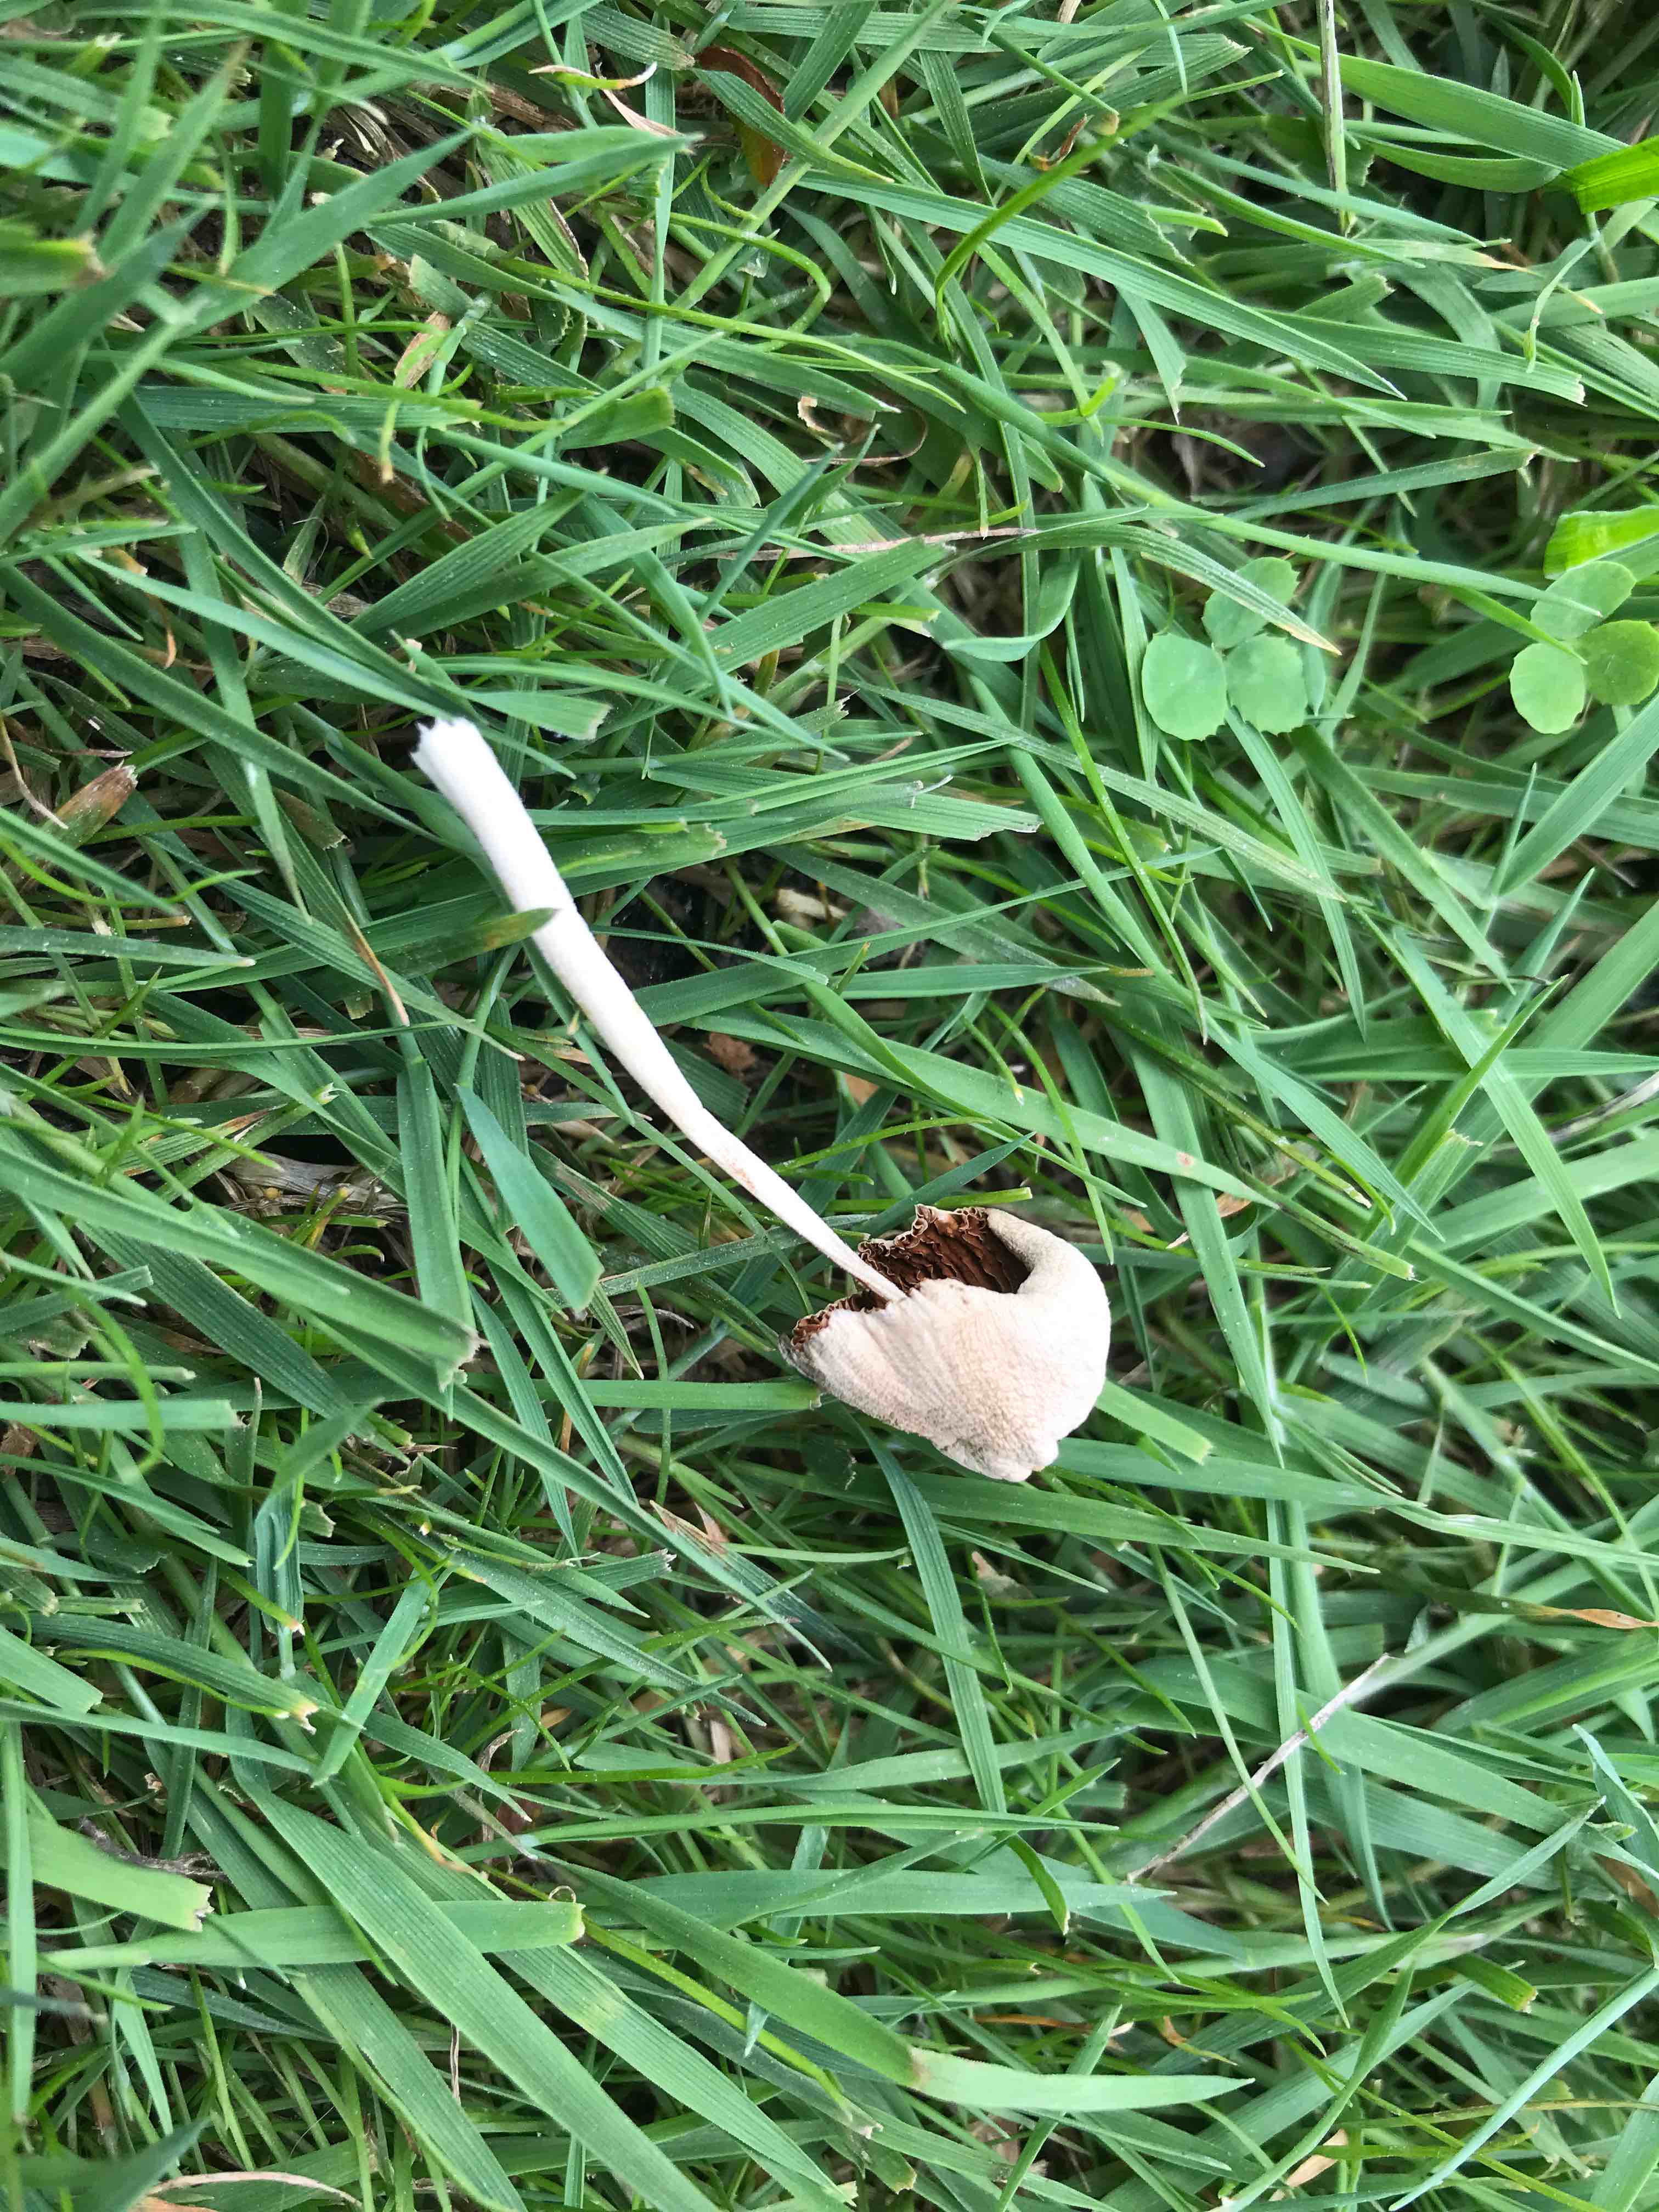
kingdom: Fungi
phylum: Basidiomycota
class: Agaricomycetes
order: Agaricales
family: Bolbitiaceae
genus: Conocybe
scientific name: Conocybe apala
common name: mælkehvid keglehat
